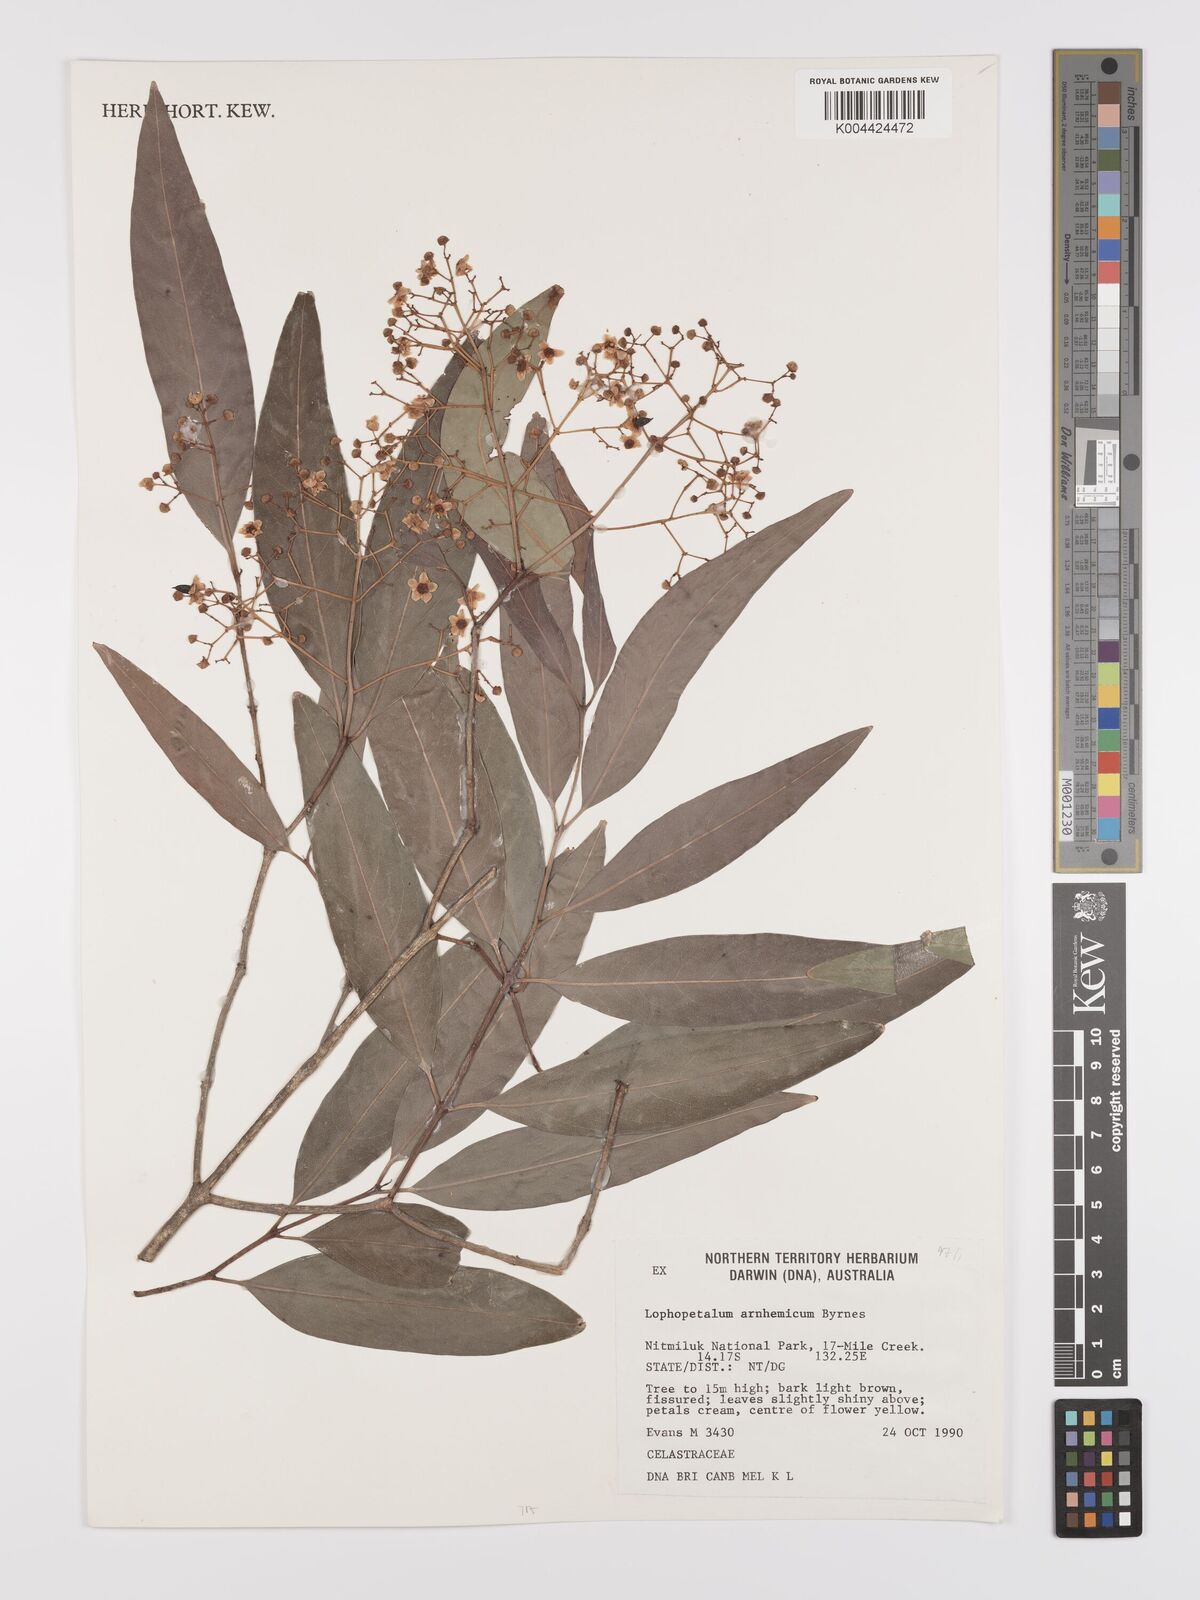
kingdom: Plantae
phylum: Tracheophyta
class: Magnoliopsida
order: Celastrales
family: Celastraceae
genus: Lophopetalum
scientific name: Lophopetalum arnhemicum
